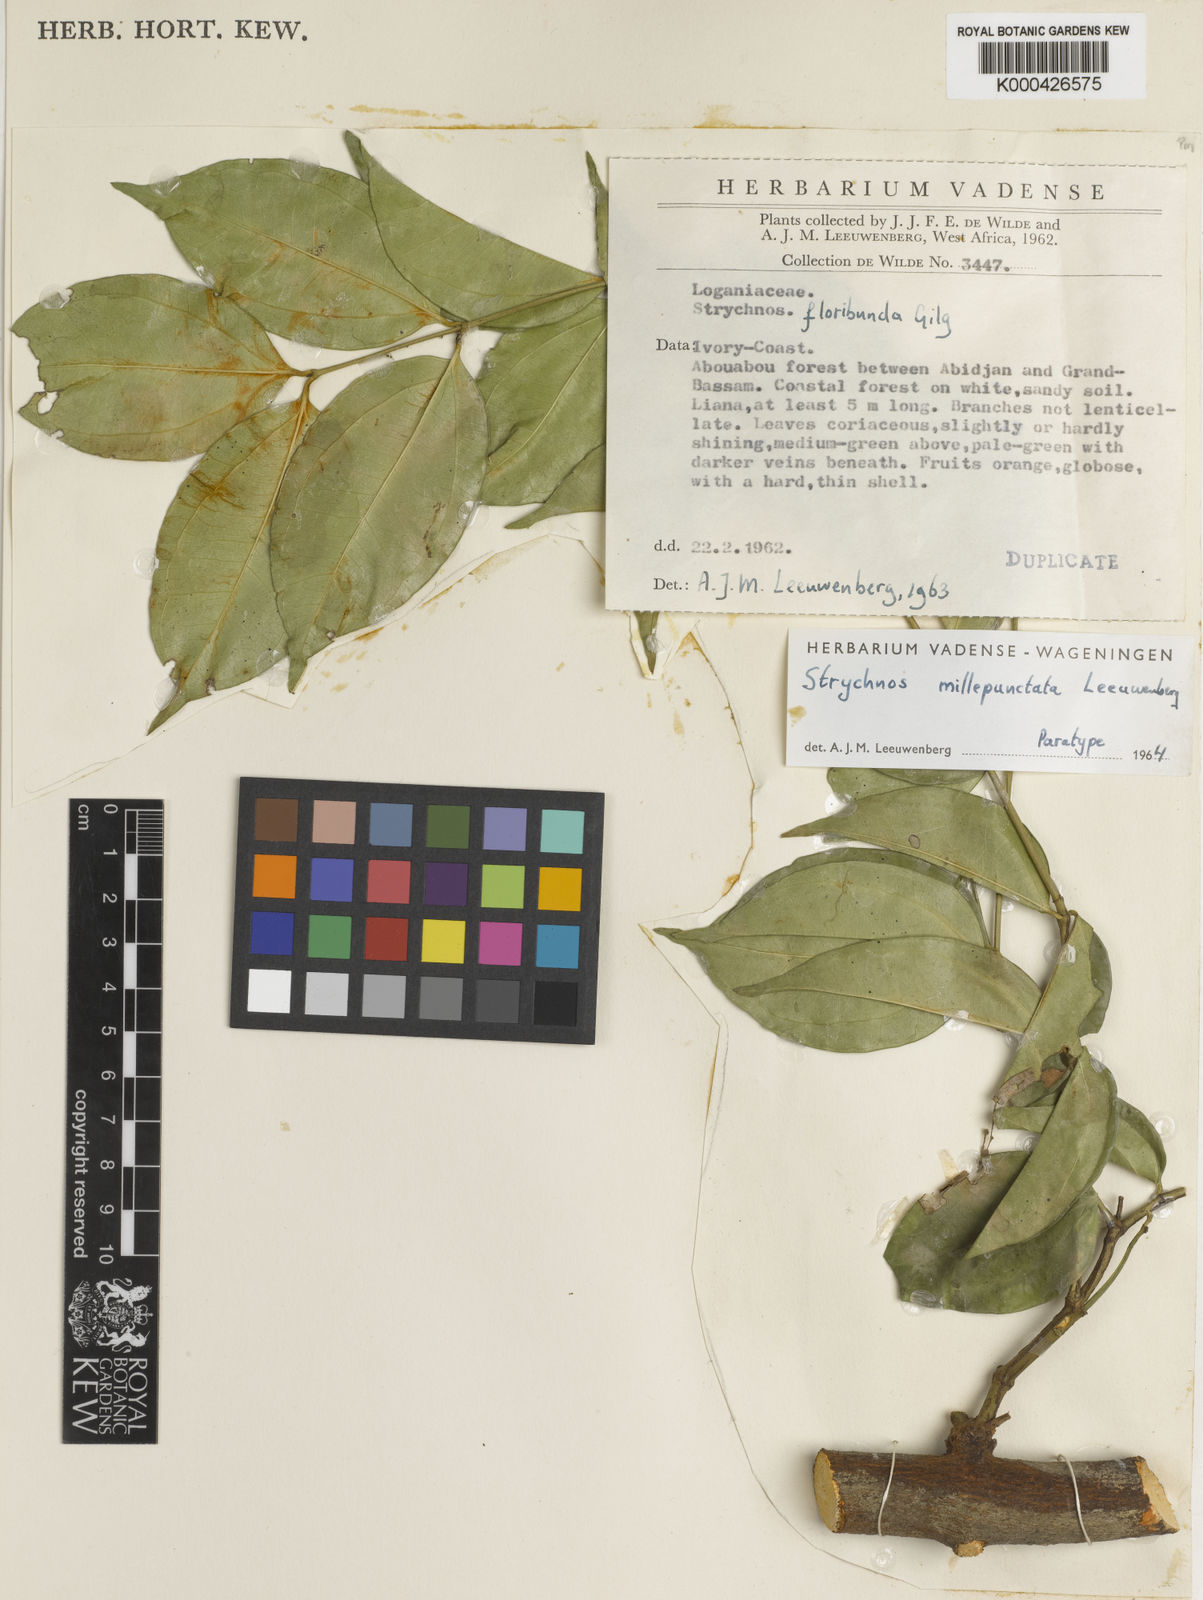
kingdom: Plantae
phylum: Tracheophyta
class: Magnoliopsida
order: Gentianales
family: Loganiaceae
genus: Strychnos
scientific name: Strychnos millepunctata
